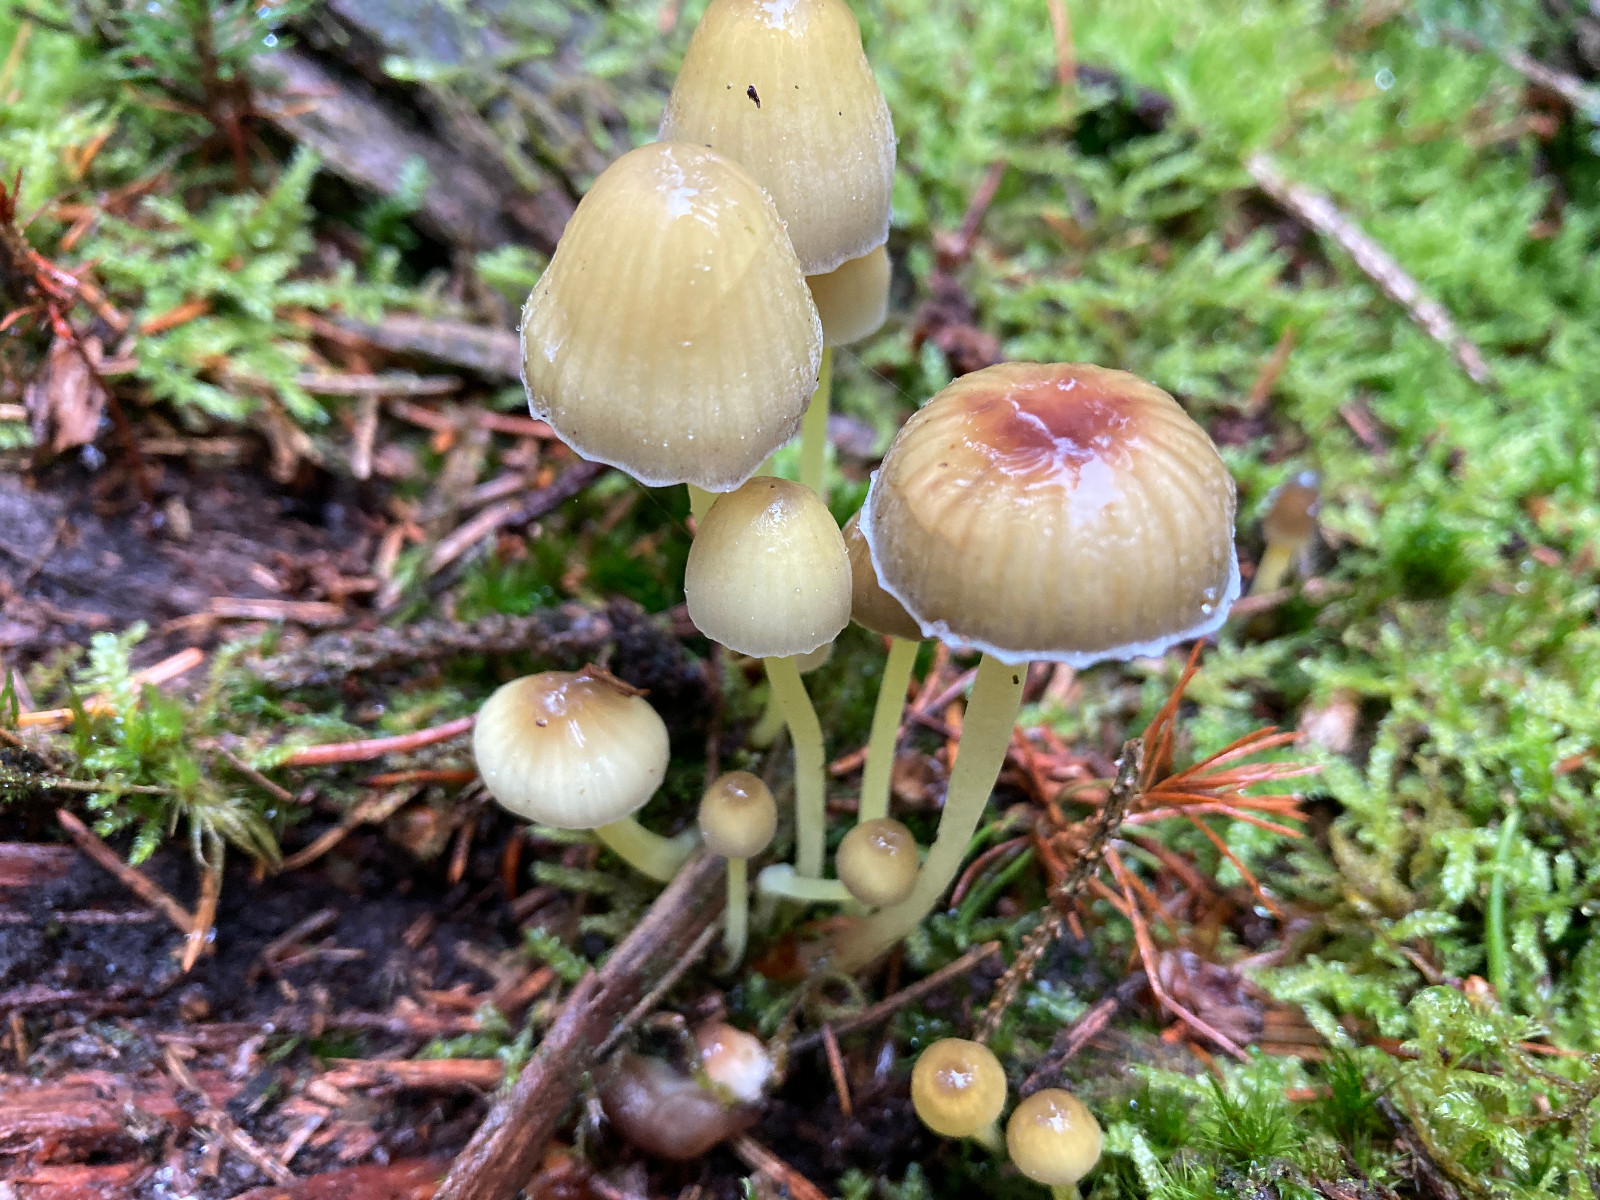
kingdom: Fungi
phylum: Basidiomycota
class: Agaricomycetes
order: Agaricales
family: Mycenaceae
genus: Mycena
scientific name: Mycena epipterygia
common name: gulstokket huesvamp
